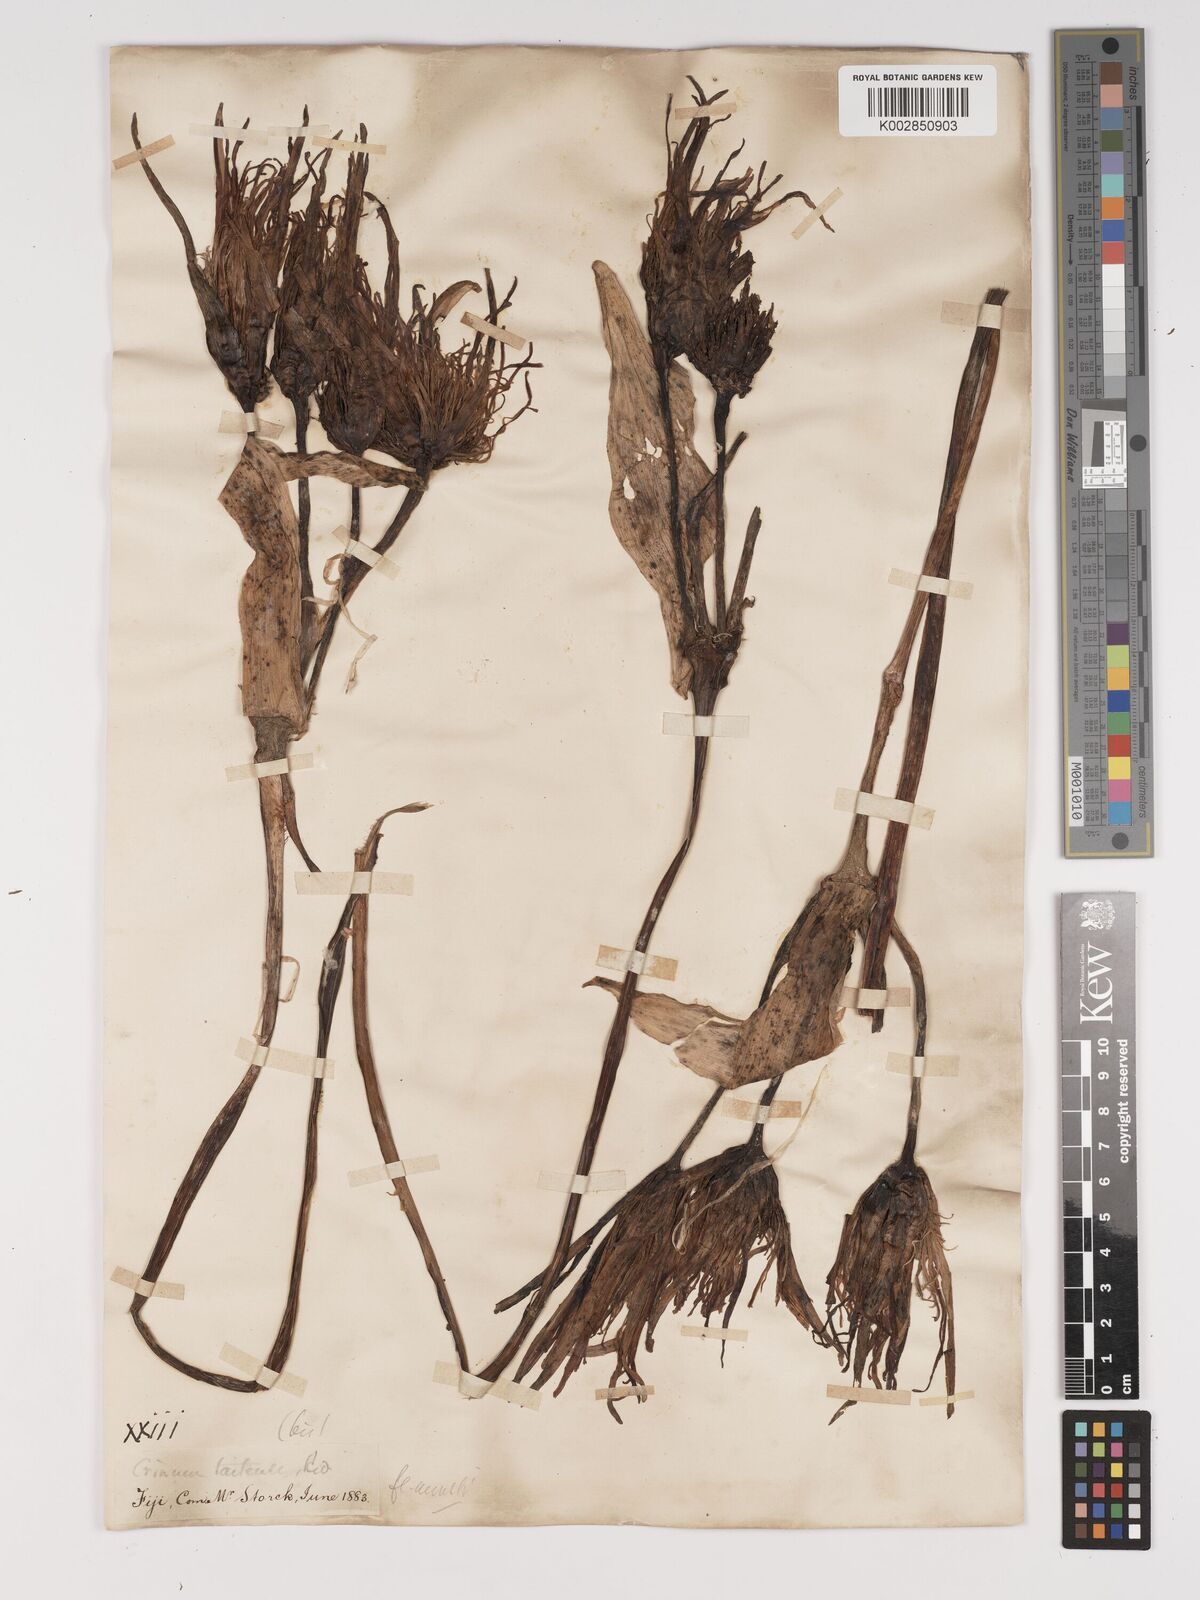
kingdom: Plantae
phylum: Tracheophyta
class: Liliopsida
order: Asparagales
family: Amaryllidaceae
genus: Crinum
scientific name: Crinum asiaticum
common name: Poisonbulb
